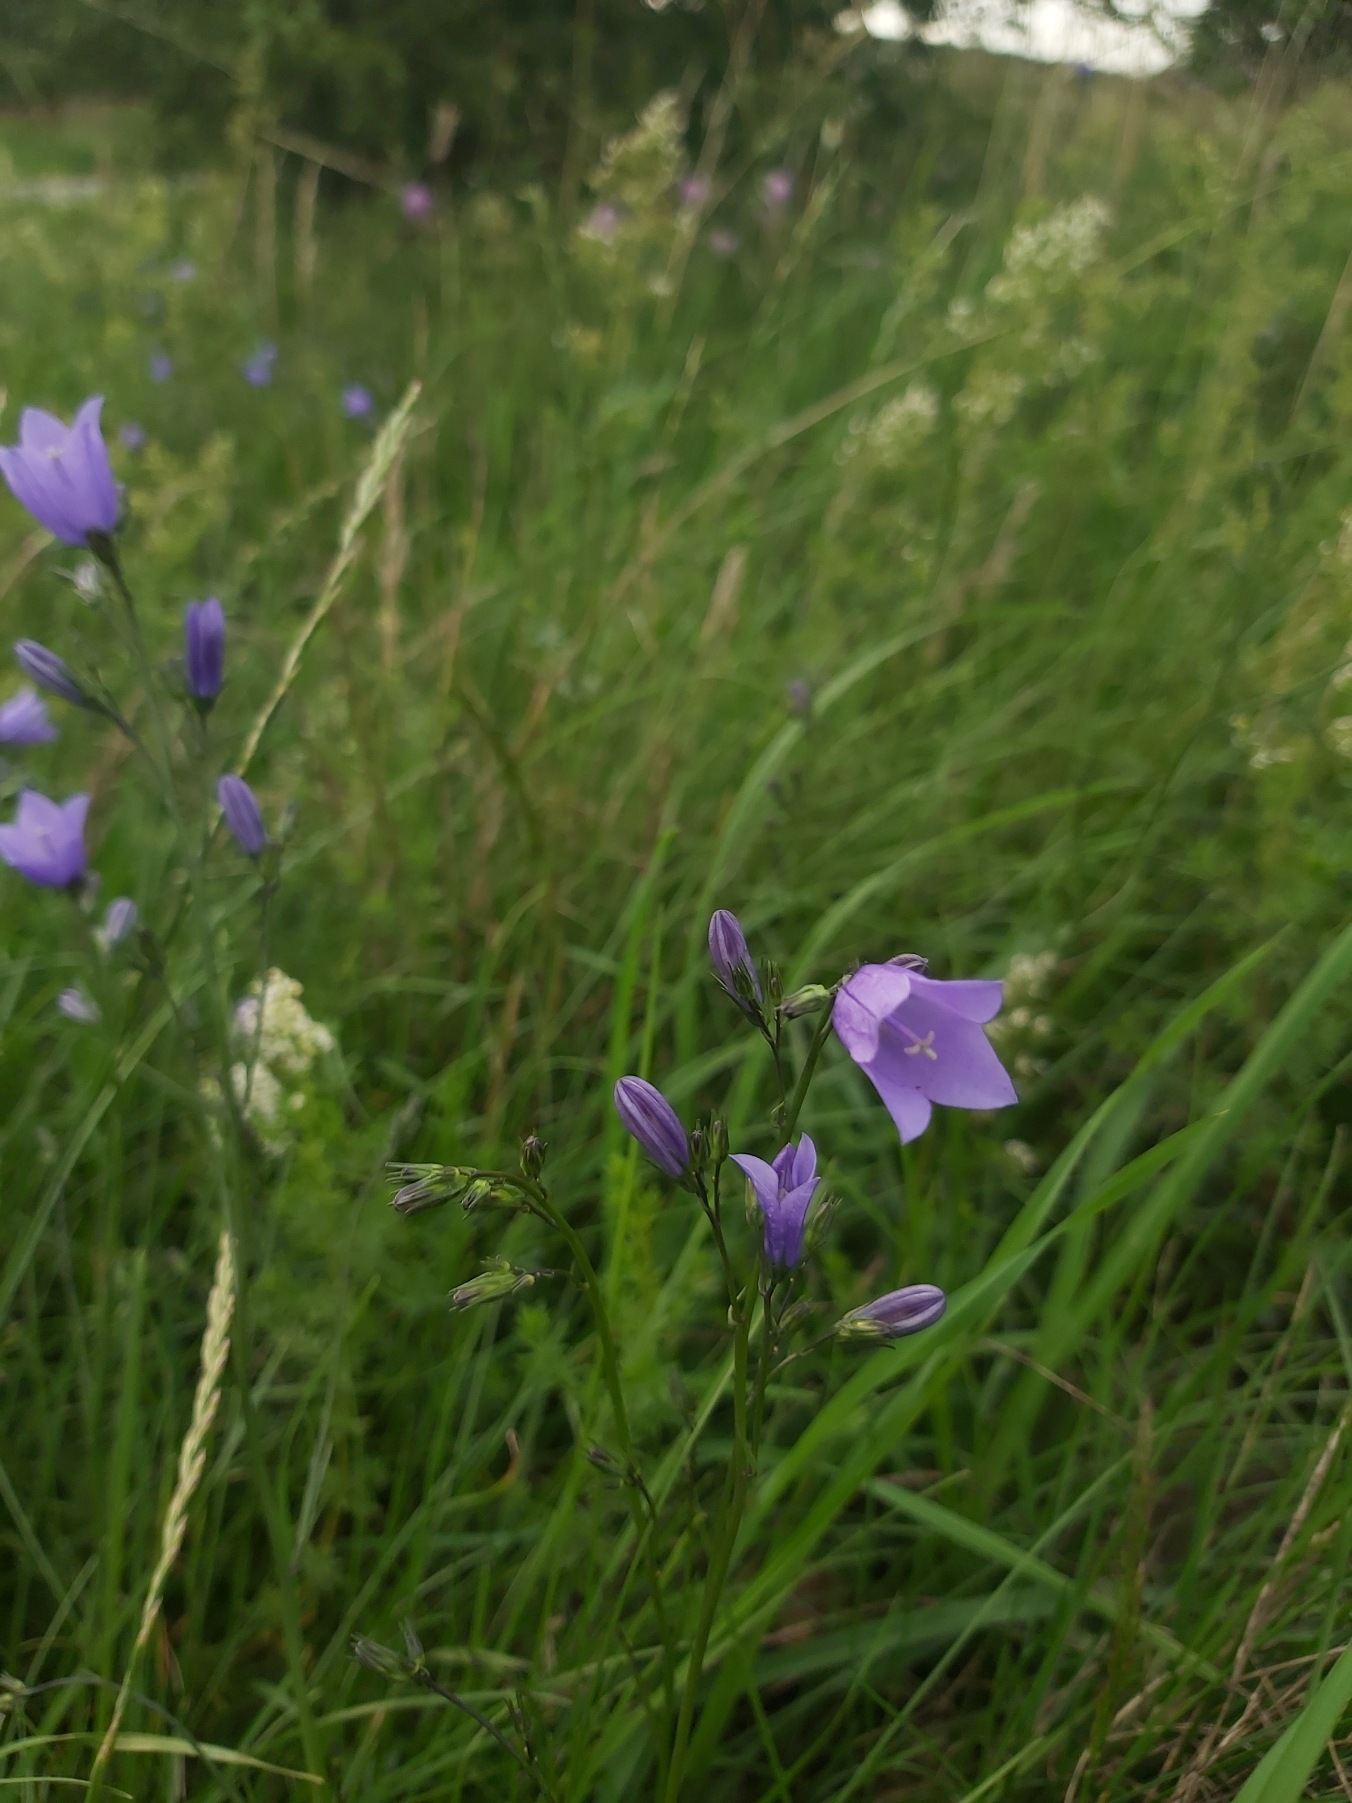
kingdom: Plantae
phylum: Tracheophyta
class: Magnoliopsida
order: Asterales
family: Campanulaceae
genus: Campanula
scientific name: Campanula rotundifolia
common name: Liden klokke
